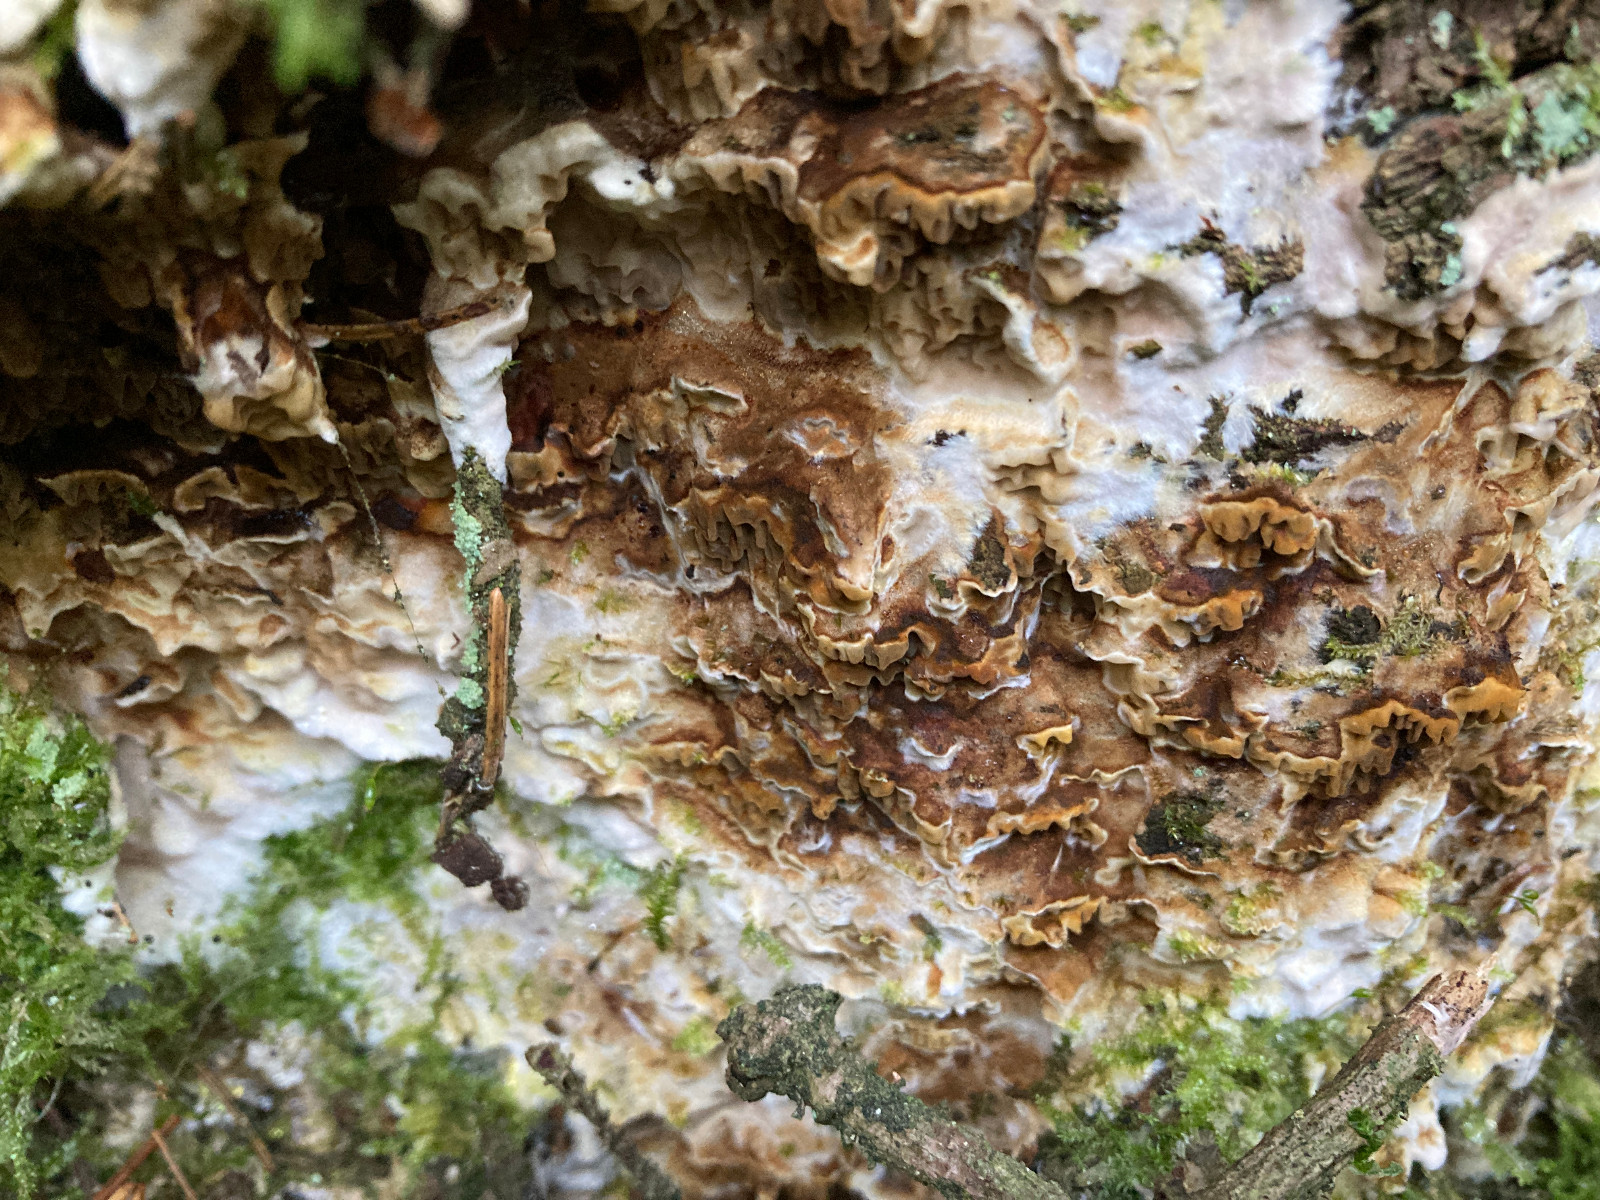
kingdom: Fungi
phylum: Basidiomycota
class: Agaricomycetes
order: Boletales
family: Coniophoraceae
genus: Coniophora
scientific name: Coniophora puteana
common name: gul tømmersvamp
